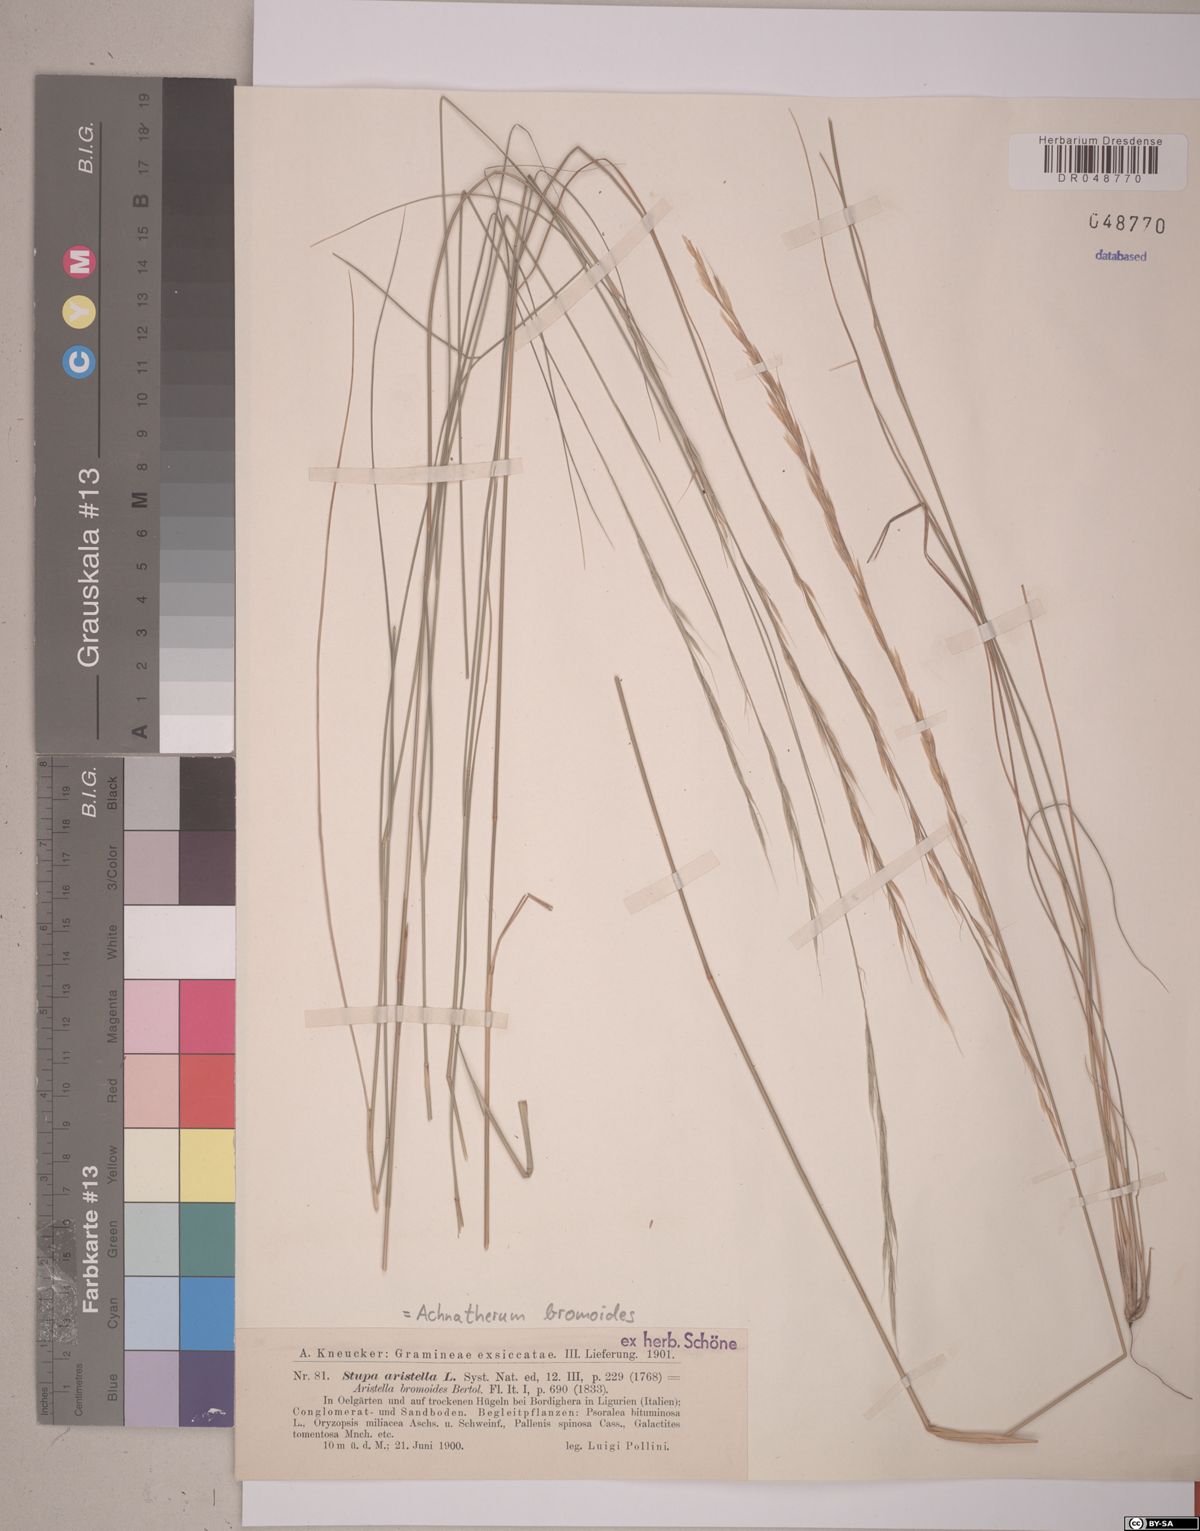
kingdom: Plantae
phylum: Tracheophyta
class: Liliopsida
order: Poales
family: Poaceae
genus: Achnatherum
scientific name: Achnatherum bromoides
